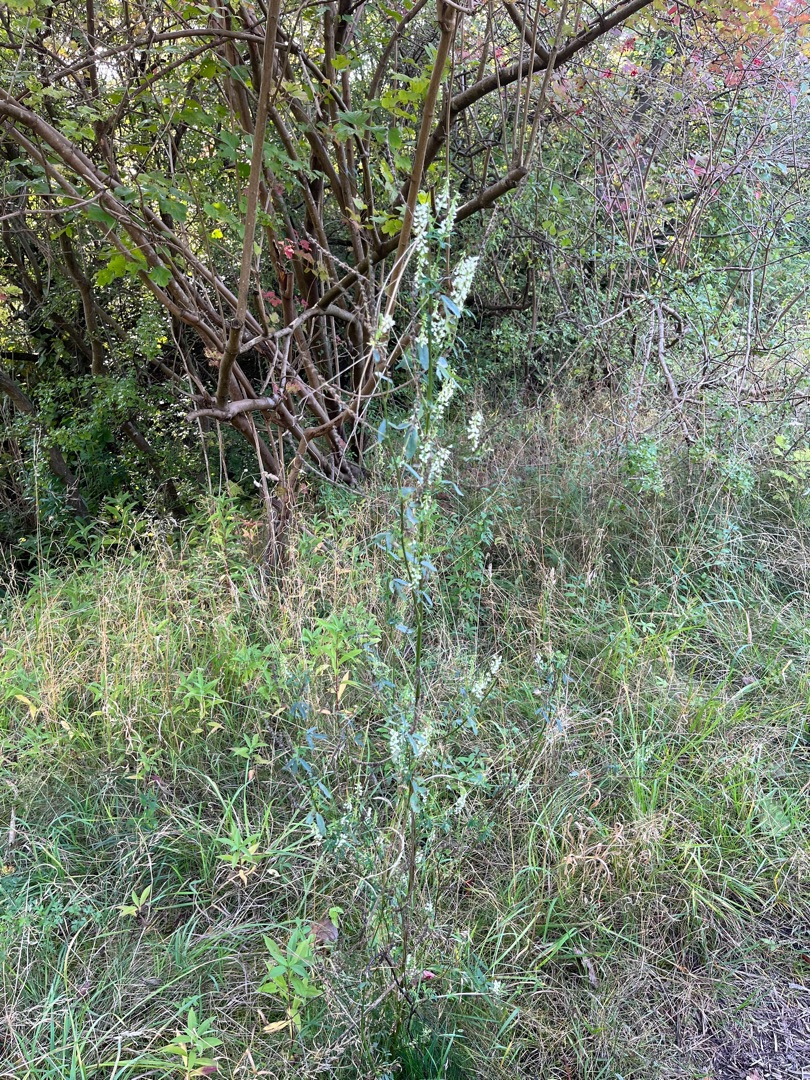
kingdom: Plantae
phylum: Tracheophyta
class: Magnoliopsida
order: Fabales
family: Fabaceae
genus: Melilotus
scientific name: Melilotus albus
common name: Hvid stenkløver
